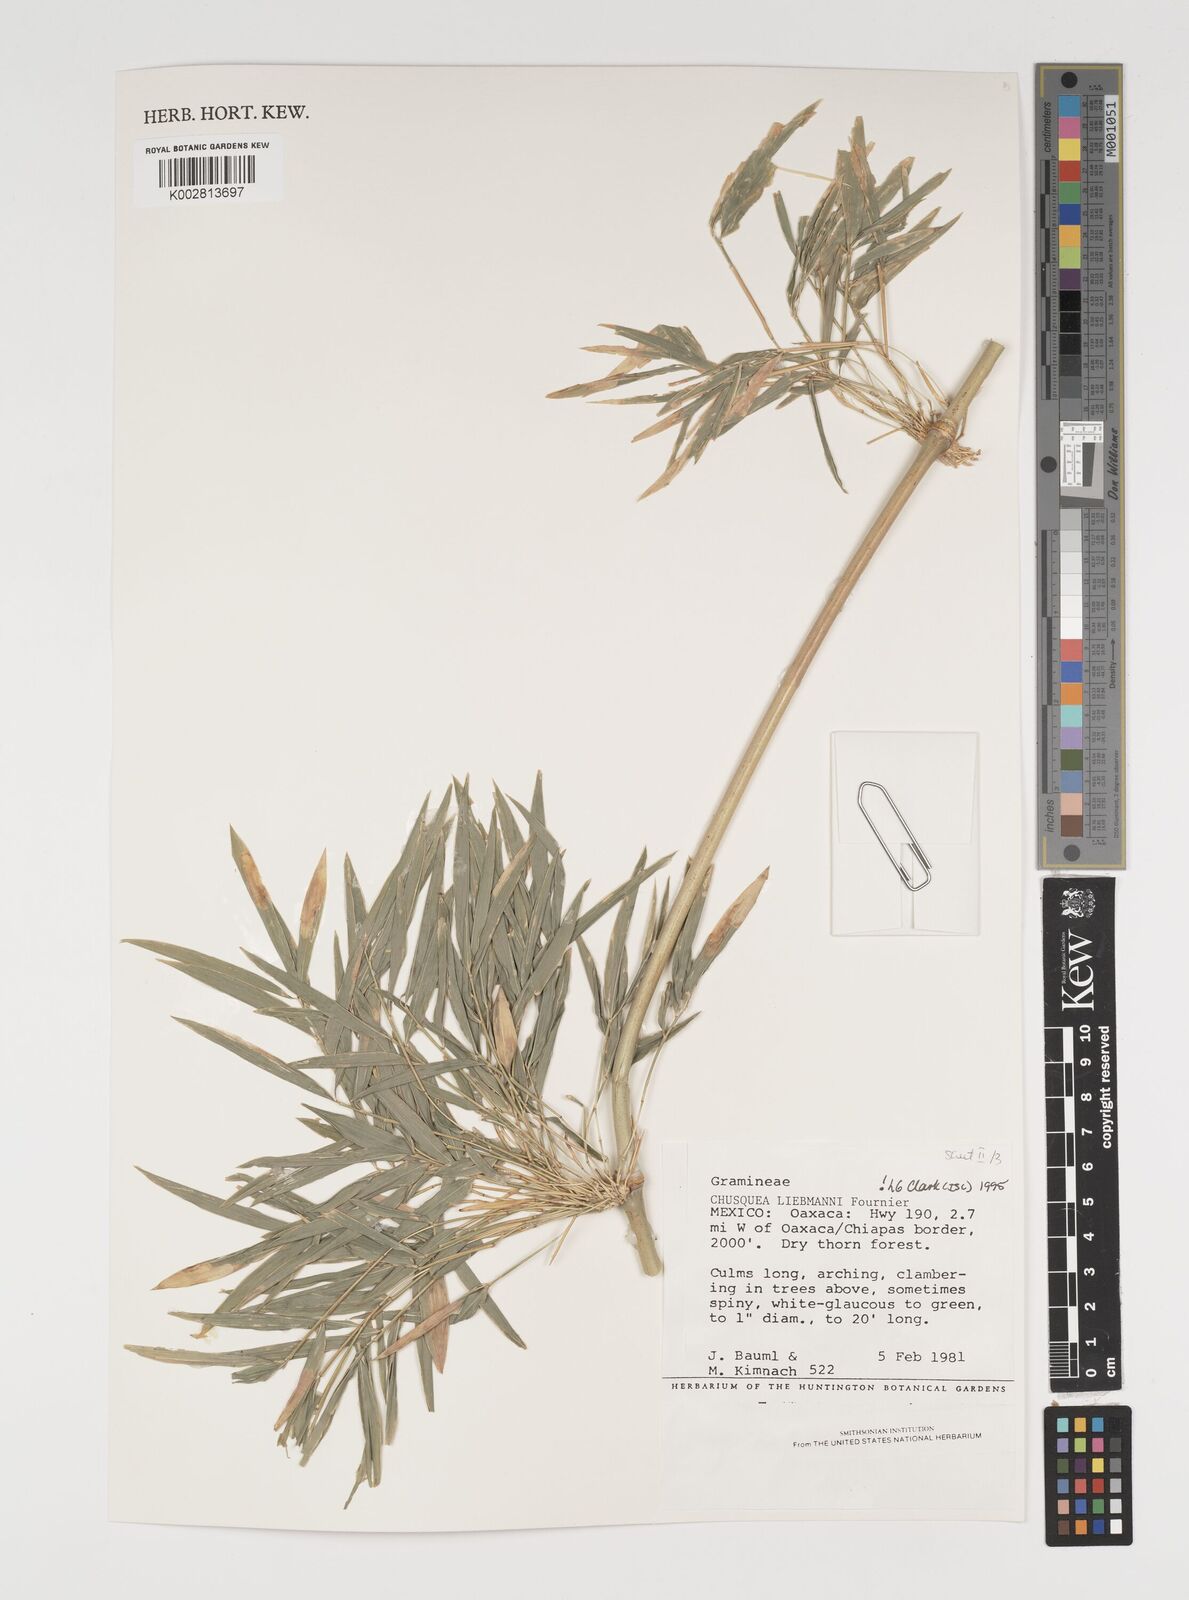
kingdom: Plantae
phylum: Tracheophyta
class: Liliopsida
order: Poales
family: Poaceae
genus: Chusquea
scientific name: Chusquea liebmannii
